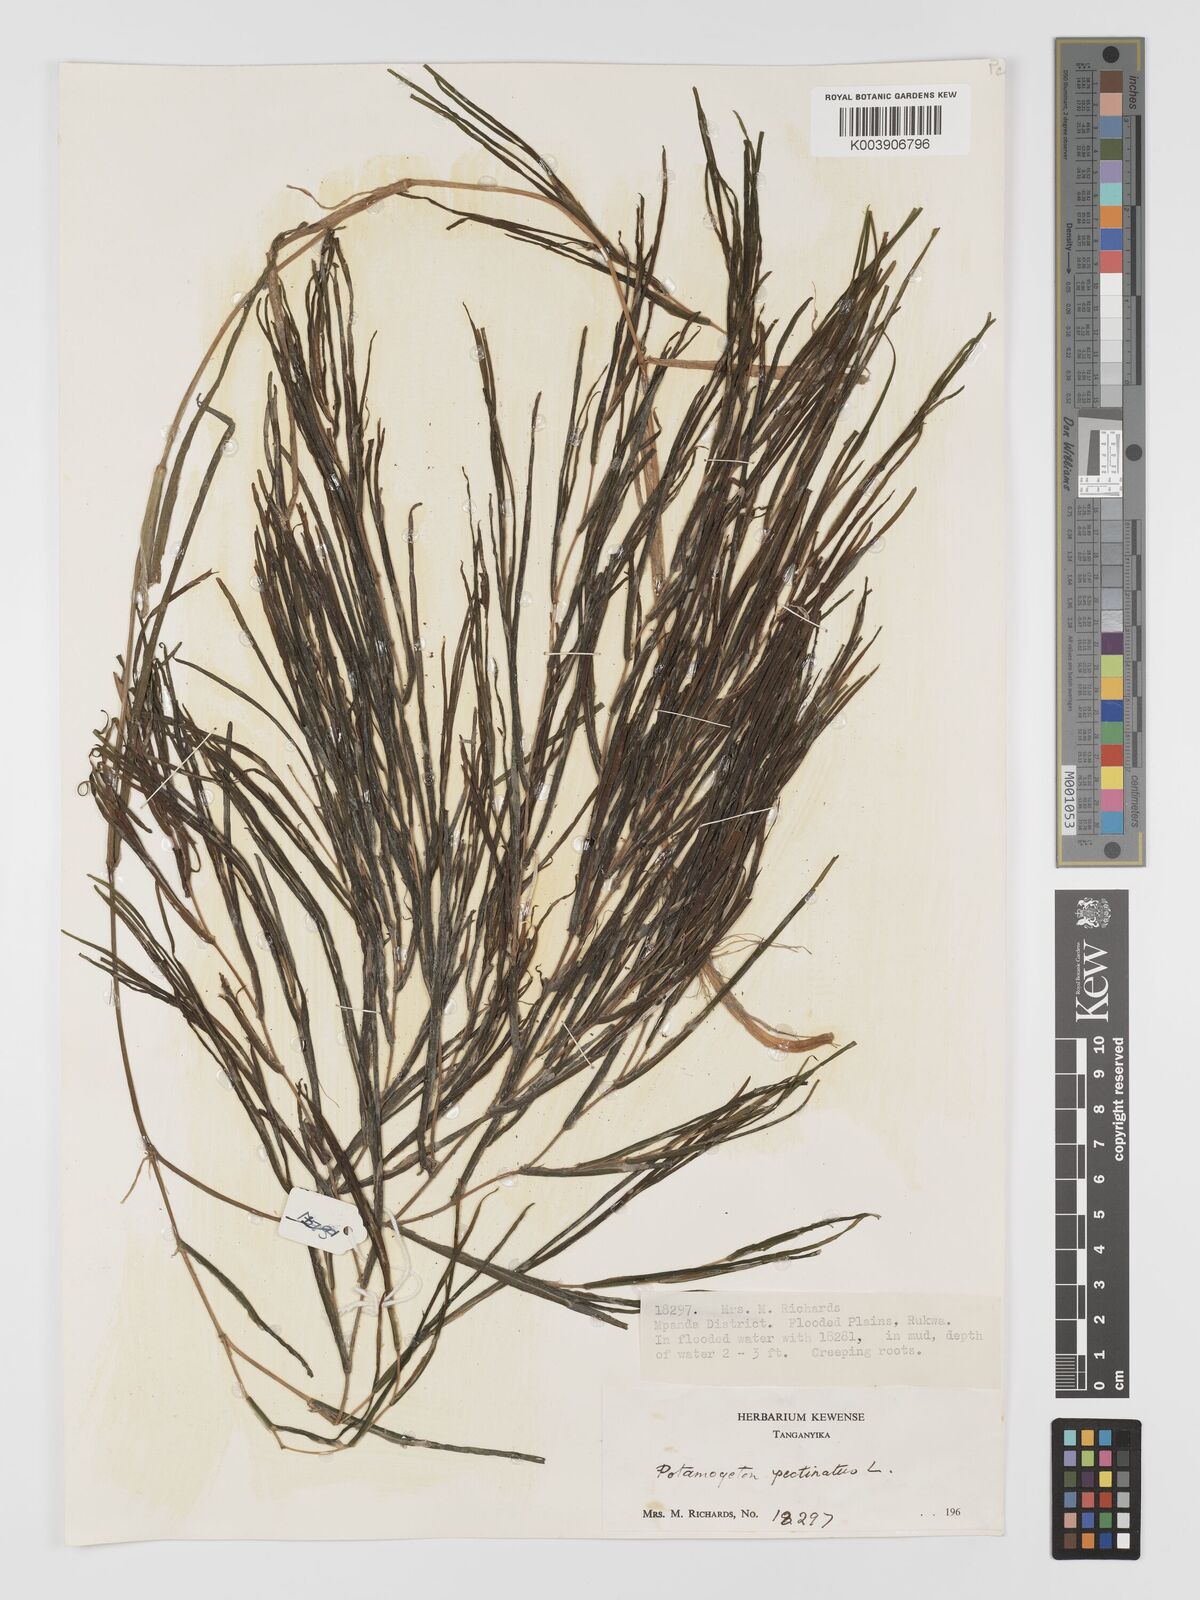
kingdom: Plantae
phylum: Tracheophyta
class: Liliopsida
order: Alismatales
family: Potamogetonaceae
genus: Stuckenia
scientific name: Stuckenia pectinata
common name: Sago pondweed
